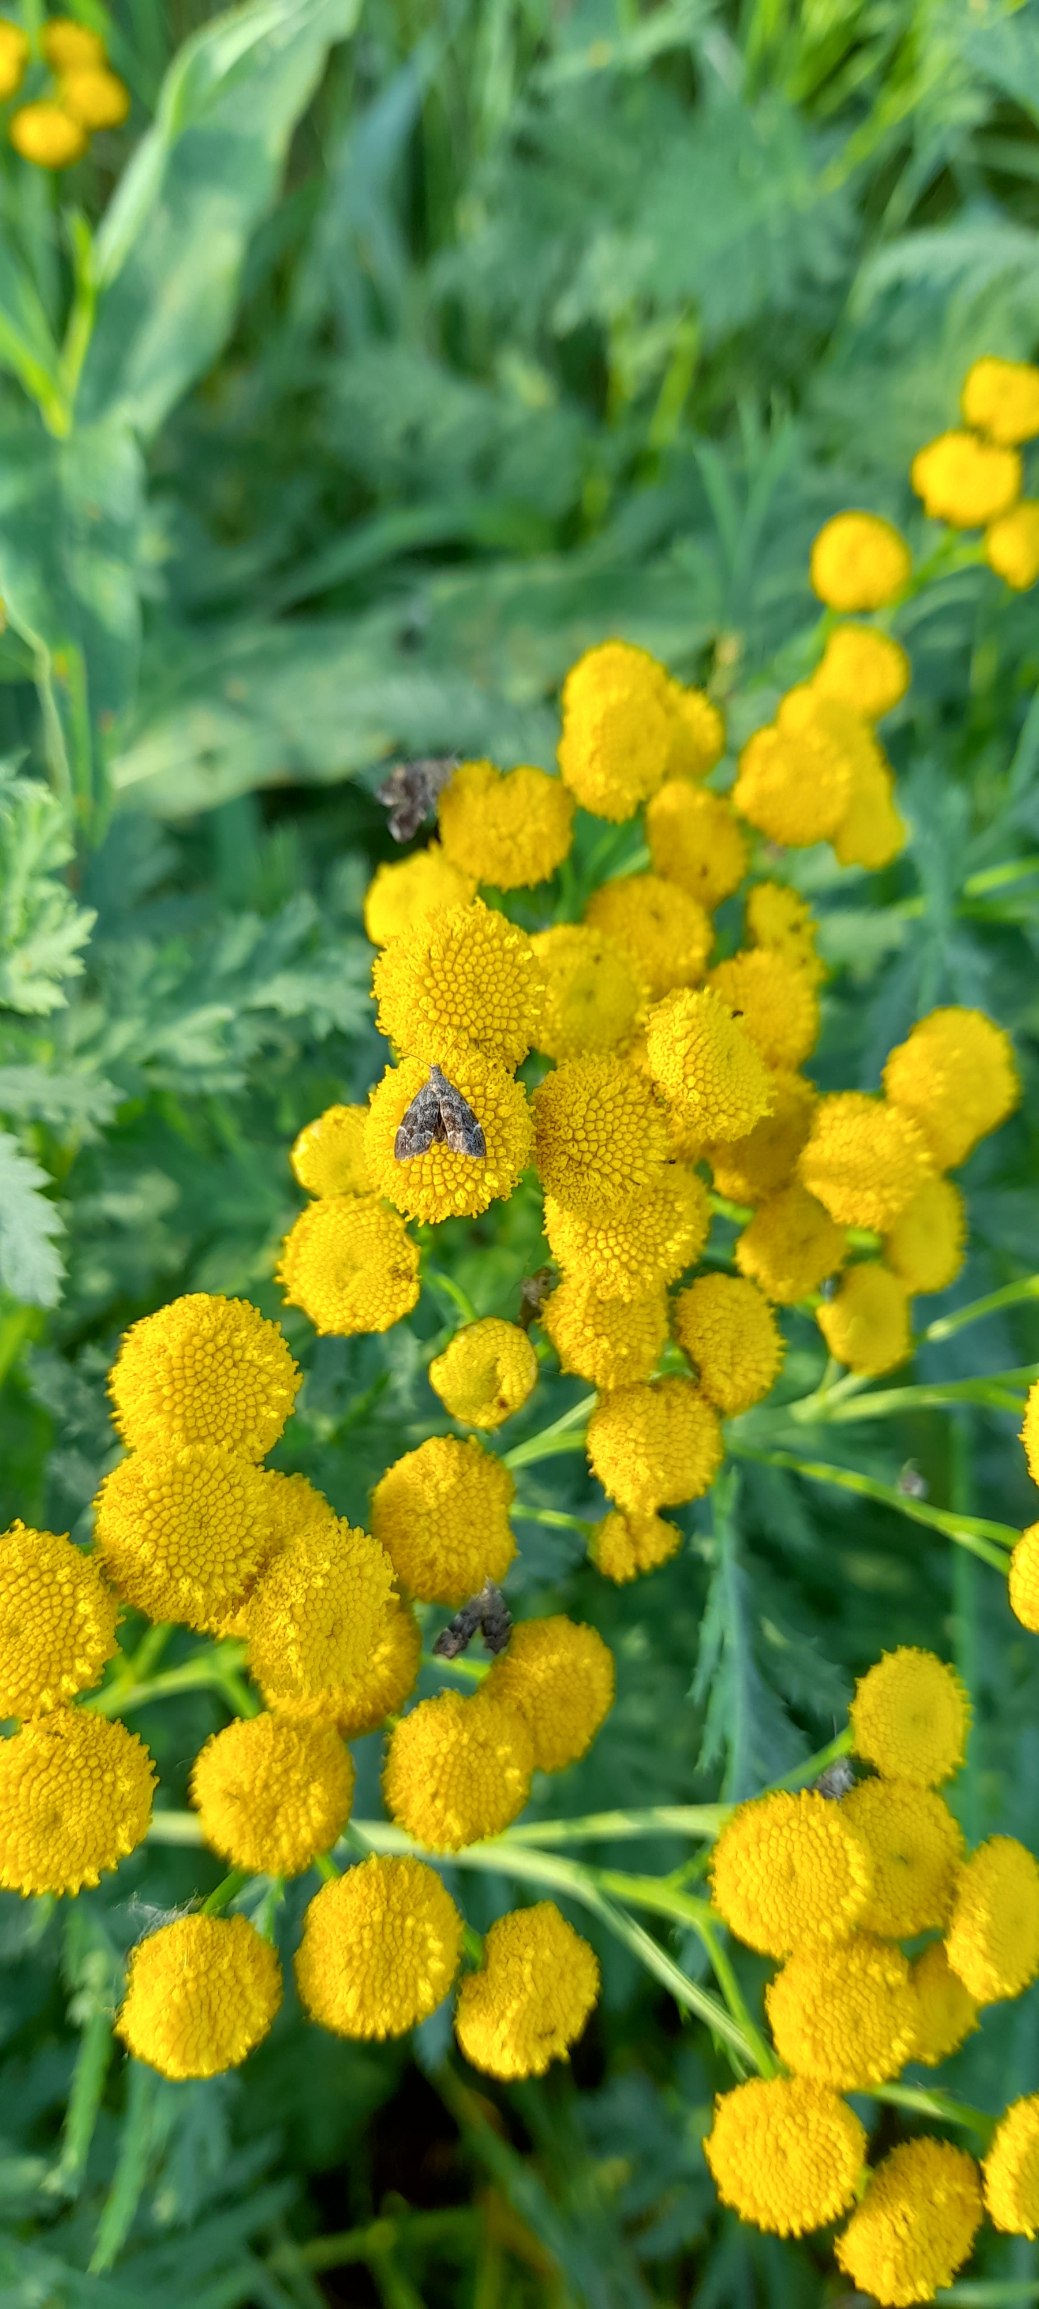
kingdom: Animalia
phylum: Arthropoda
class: Insecta
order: Lepidoptera
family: Choreutidae
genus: Anthophila
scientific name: Anthophila fabriciana
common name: Bredvinget nældevikler
